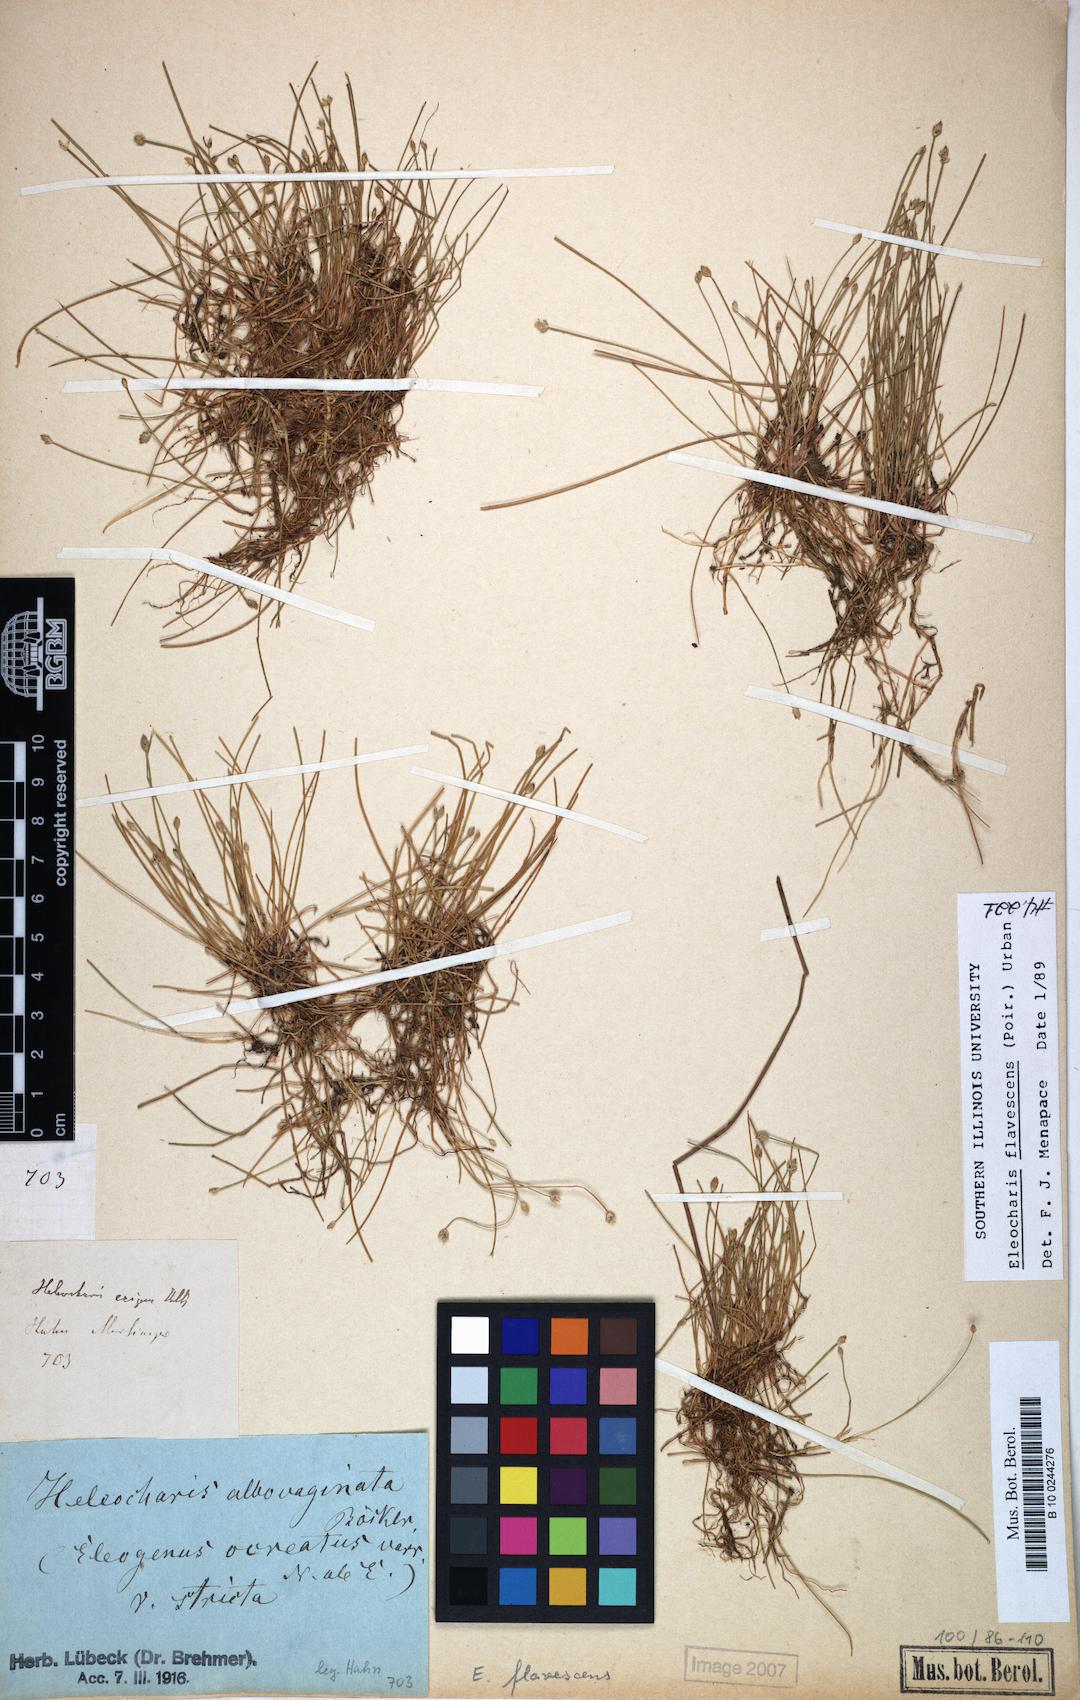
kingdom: Plantae
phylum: Tracheophyta
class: Liliopsida
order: Poales
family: Cyperaceae
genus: Eleocharis
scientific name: Eleocharis flavescens
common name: Yellow spikerush
